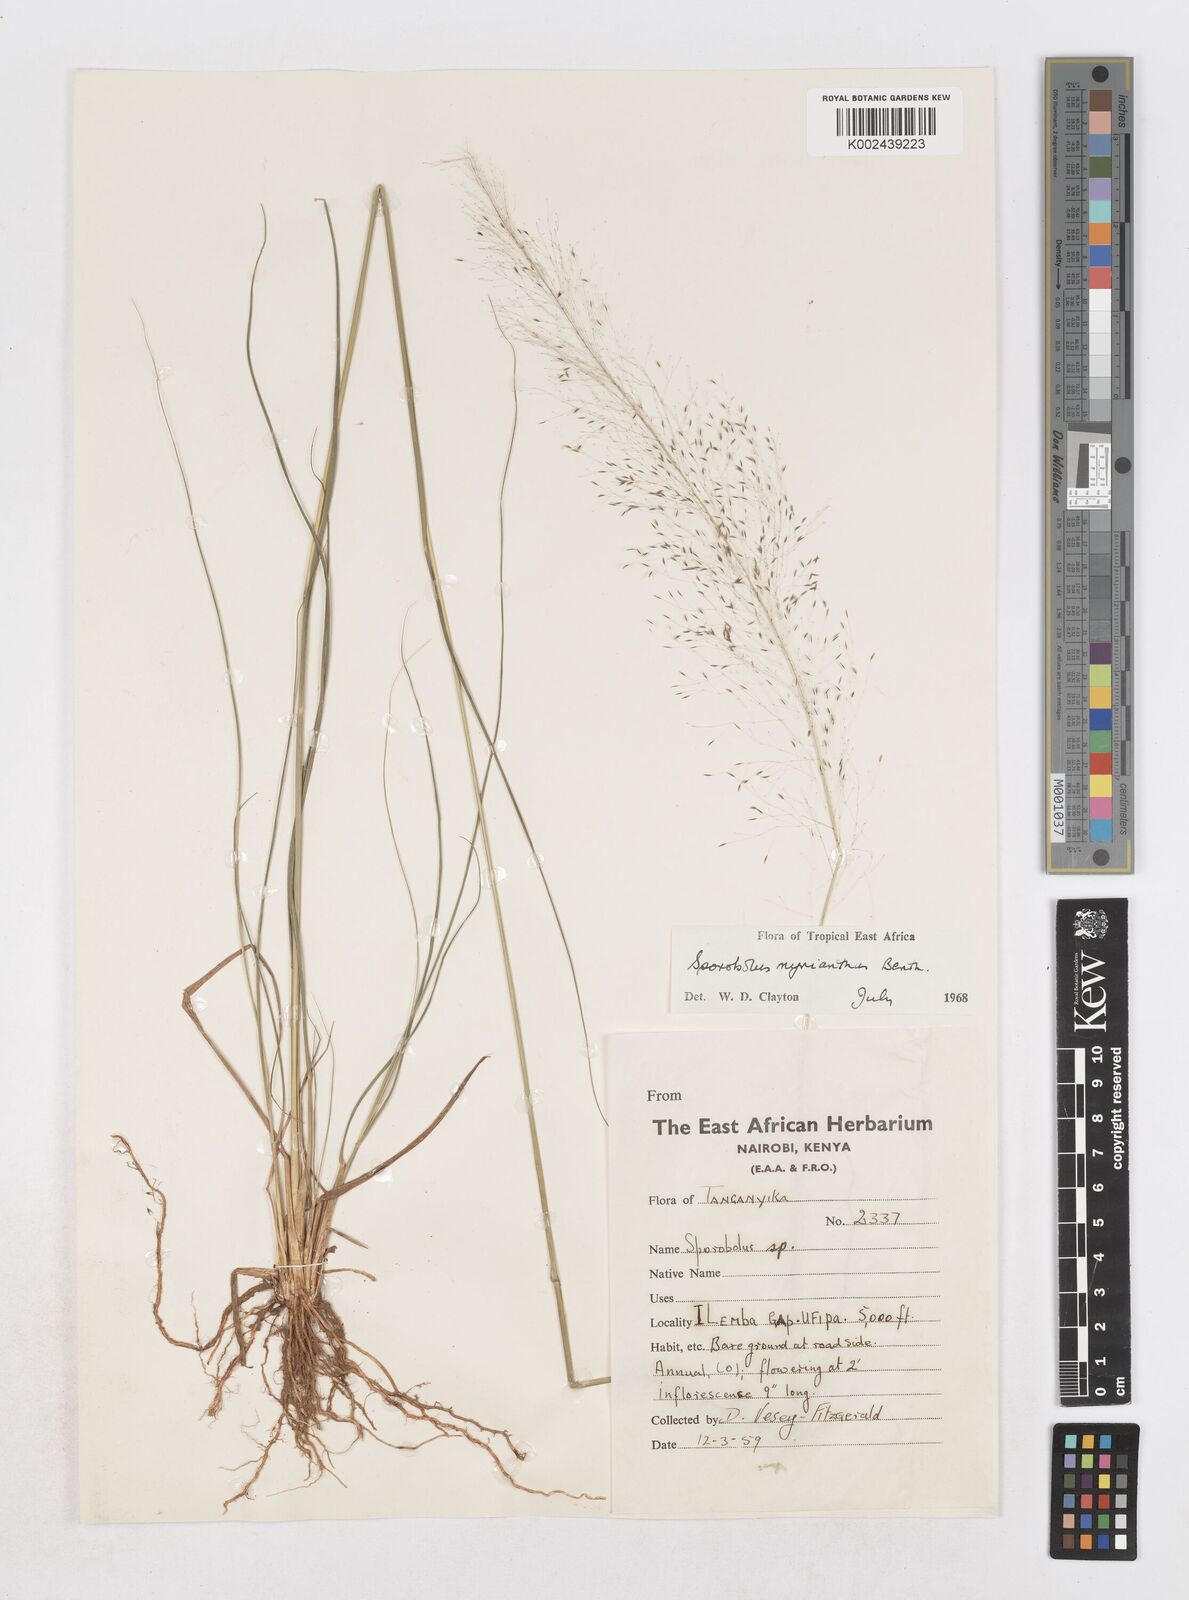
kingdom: Plantae
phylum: Tracheophyta
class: Liliopsida
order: Poales
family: Poaceae
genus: Sporobolus
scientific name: Sporobolus myrianthus
